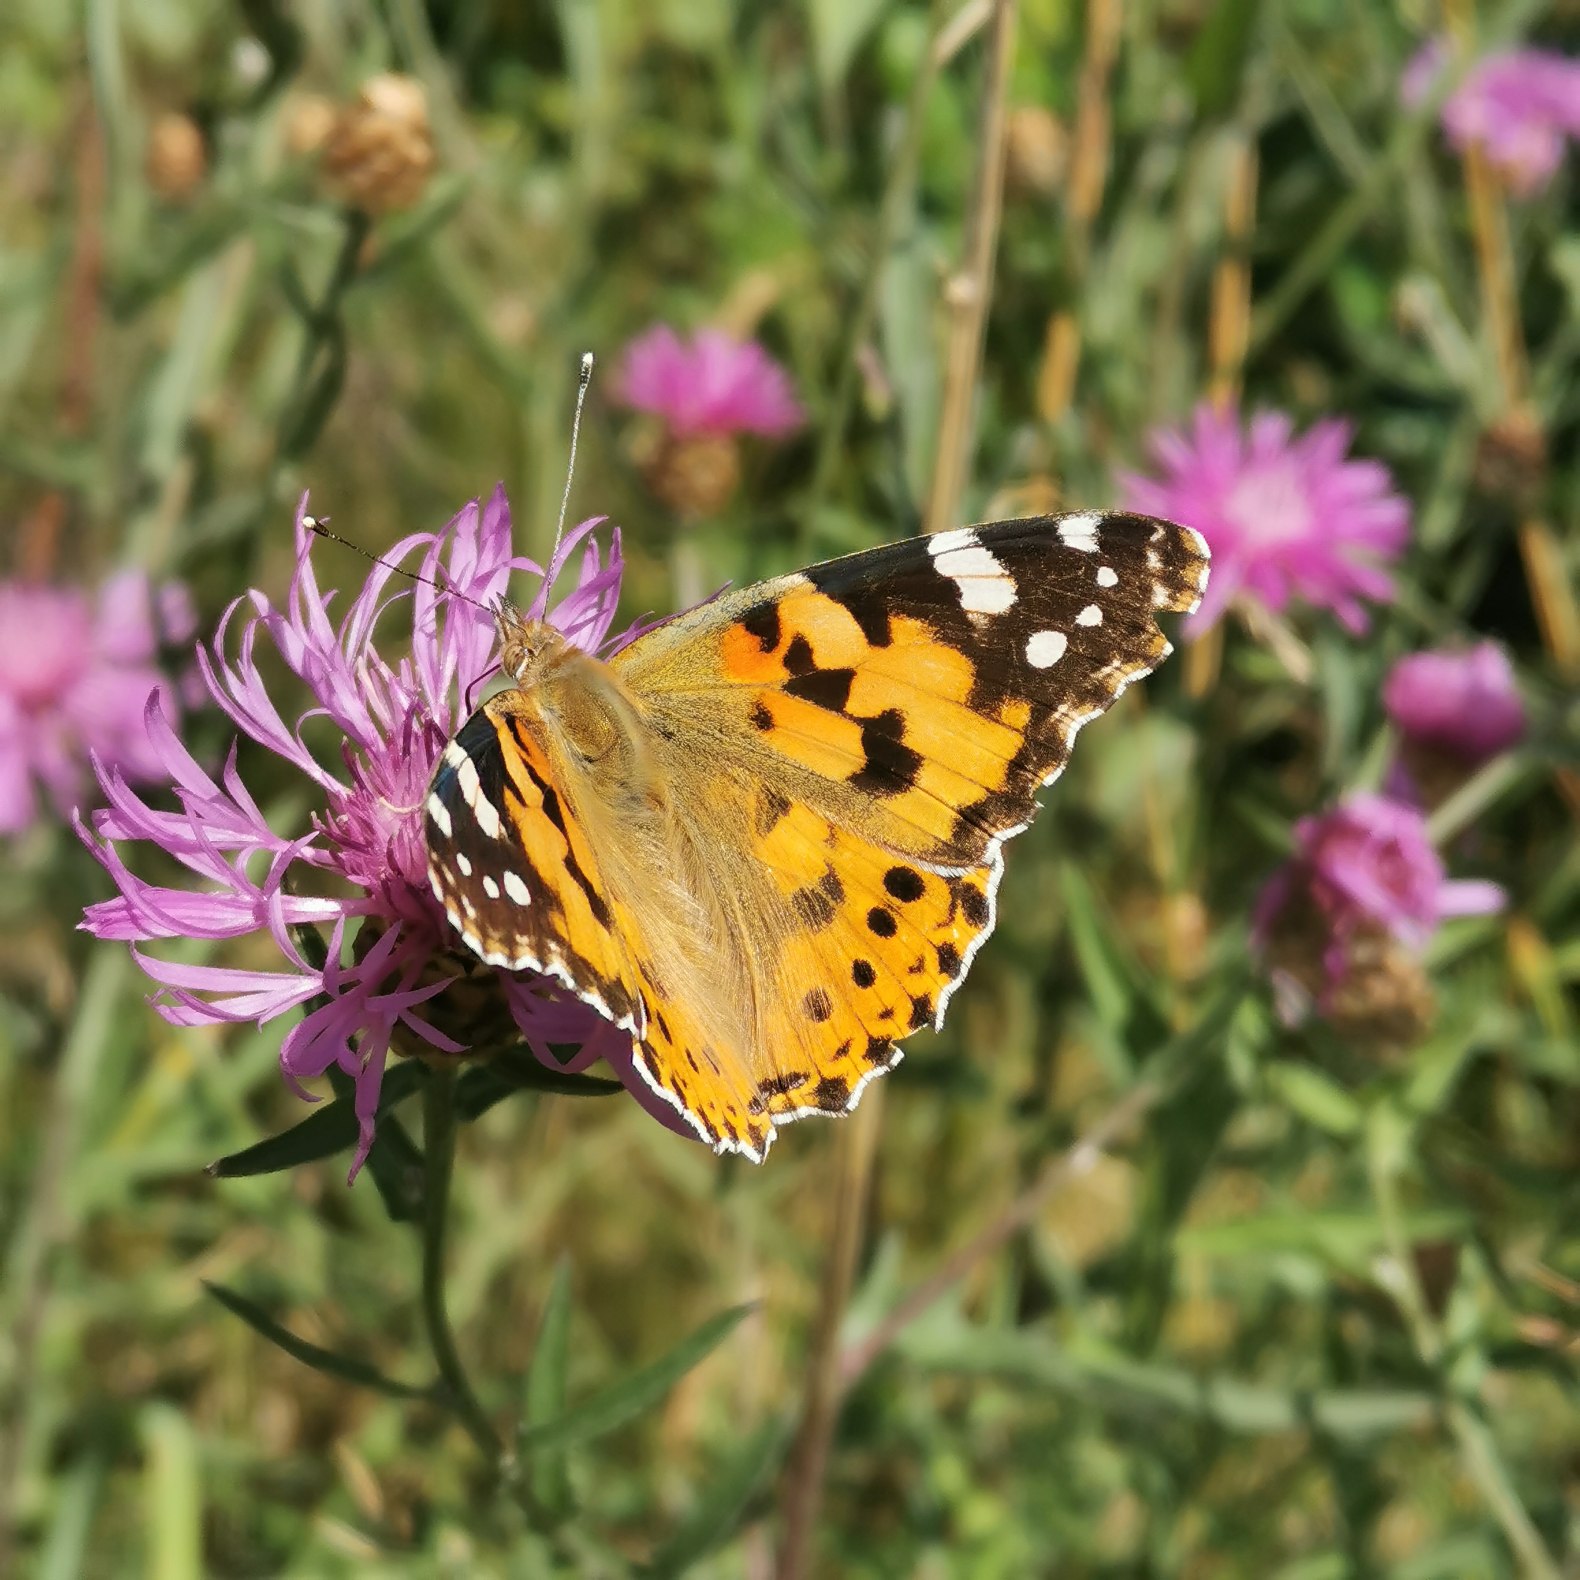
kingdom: Animalia
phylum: Arthropoda
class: Insecta
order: Lepidoptera
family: Nymphalidae
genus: Vanessa
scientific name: Vanessa cardui
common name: Tidselsommerfugl
